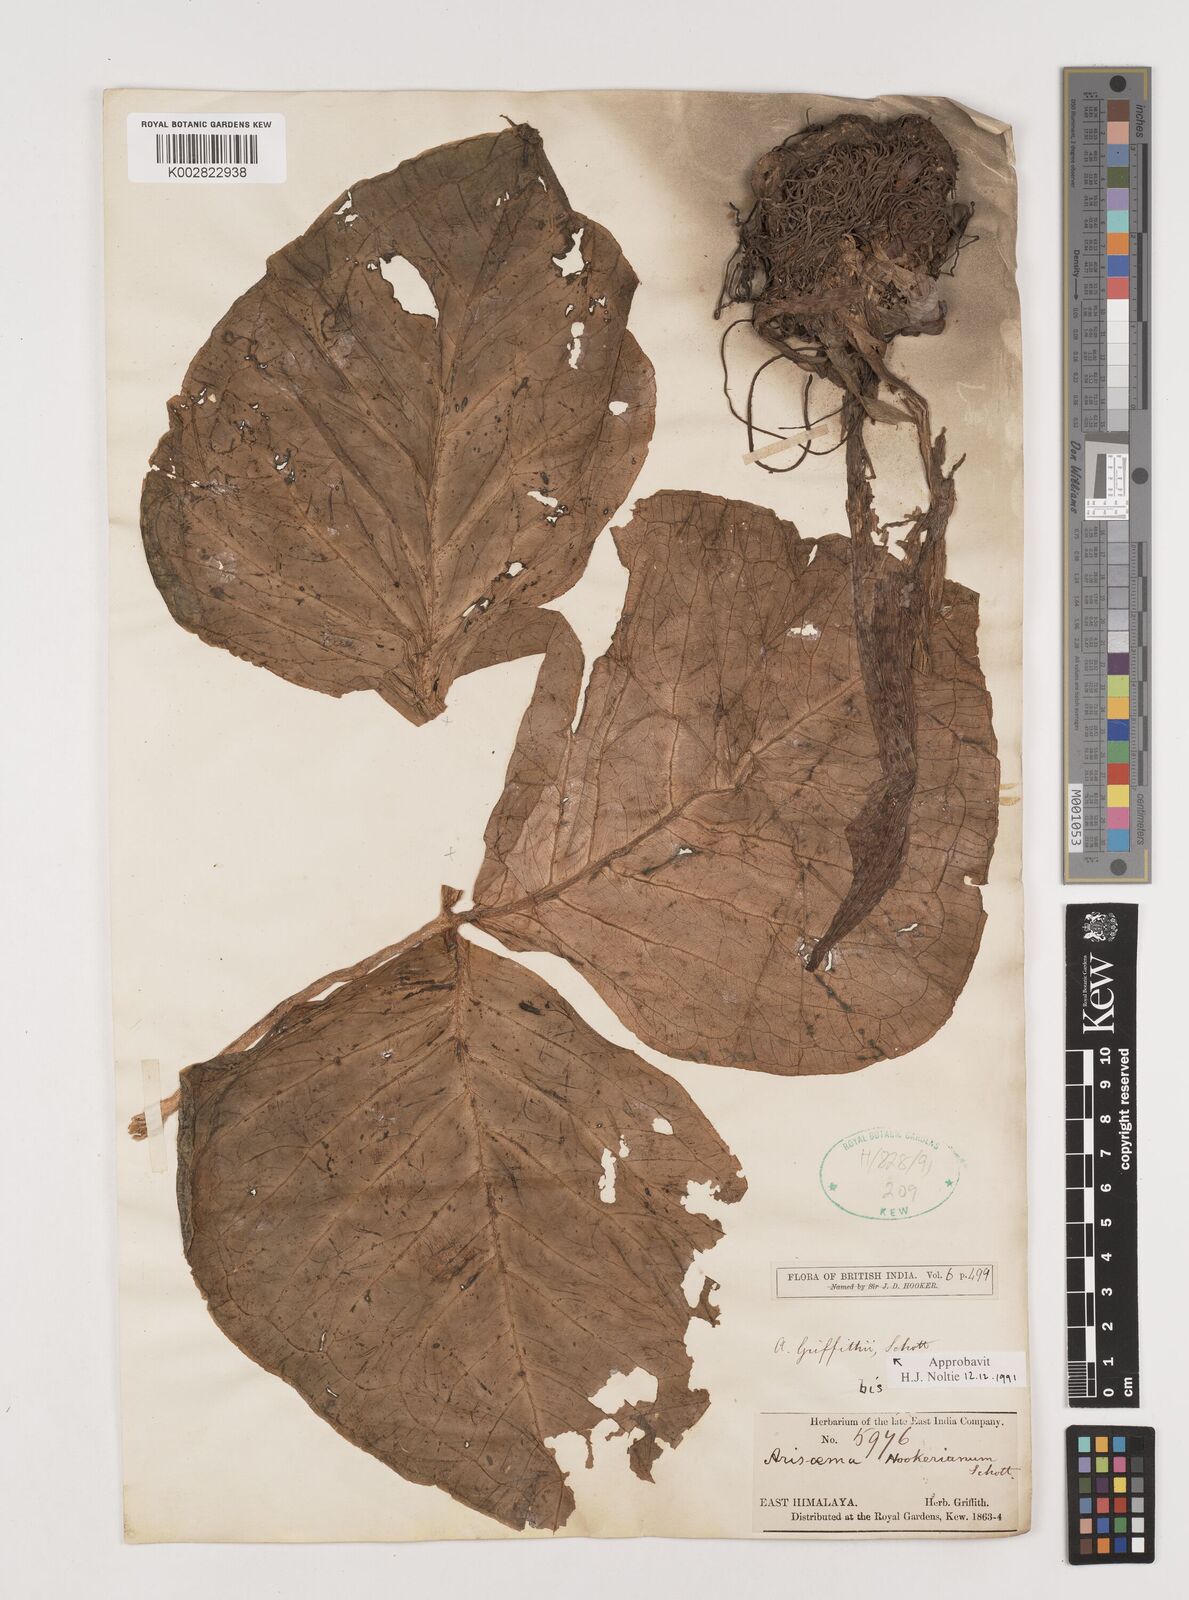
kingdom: Plantae
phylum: Tracheophyta
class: Liliopsida
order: Alismatales
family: Araceae
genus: Arisaema
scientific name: Arisaema griffithii
